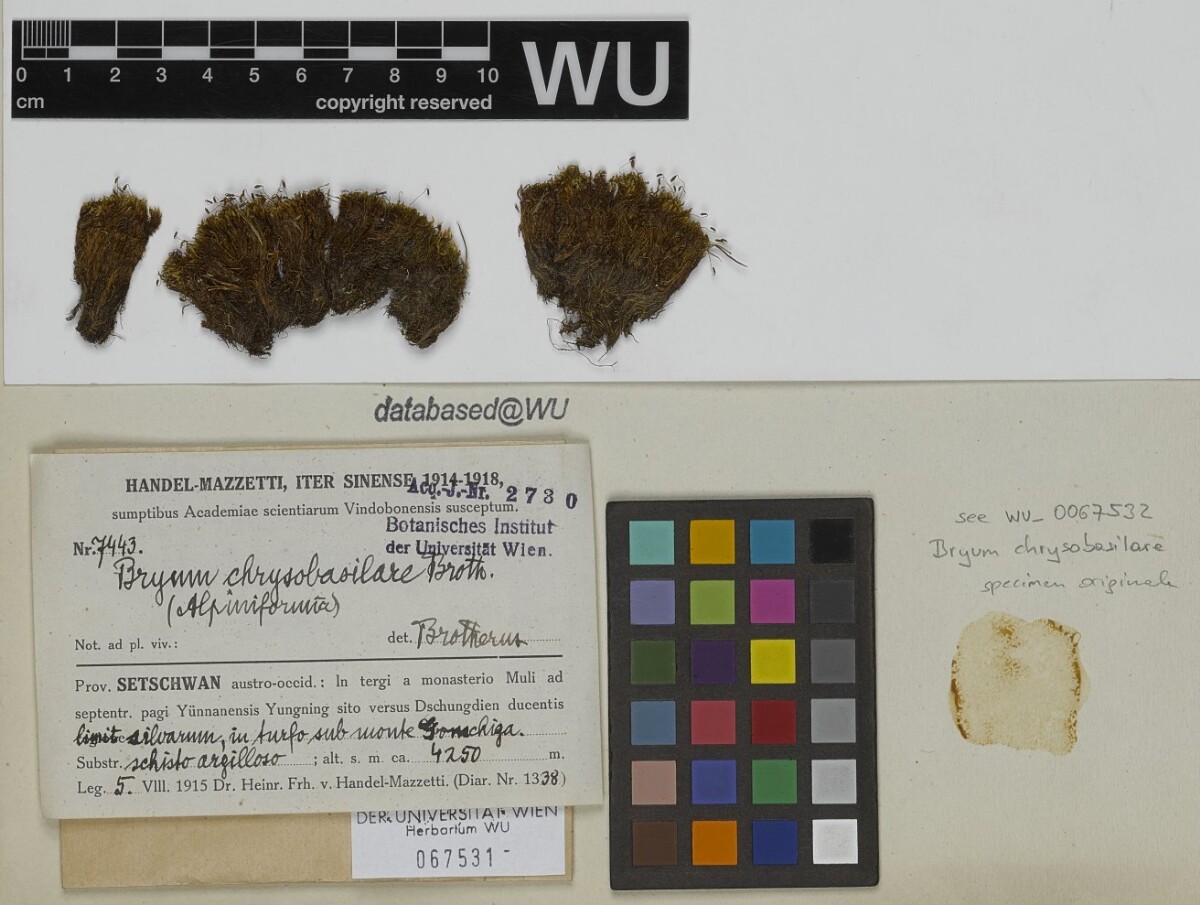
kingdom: Plantae
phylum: Bryophyta
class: Bryopsida
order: Bryales
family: Bryaceae
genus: Bryum
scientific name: Bryum recurvulum
